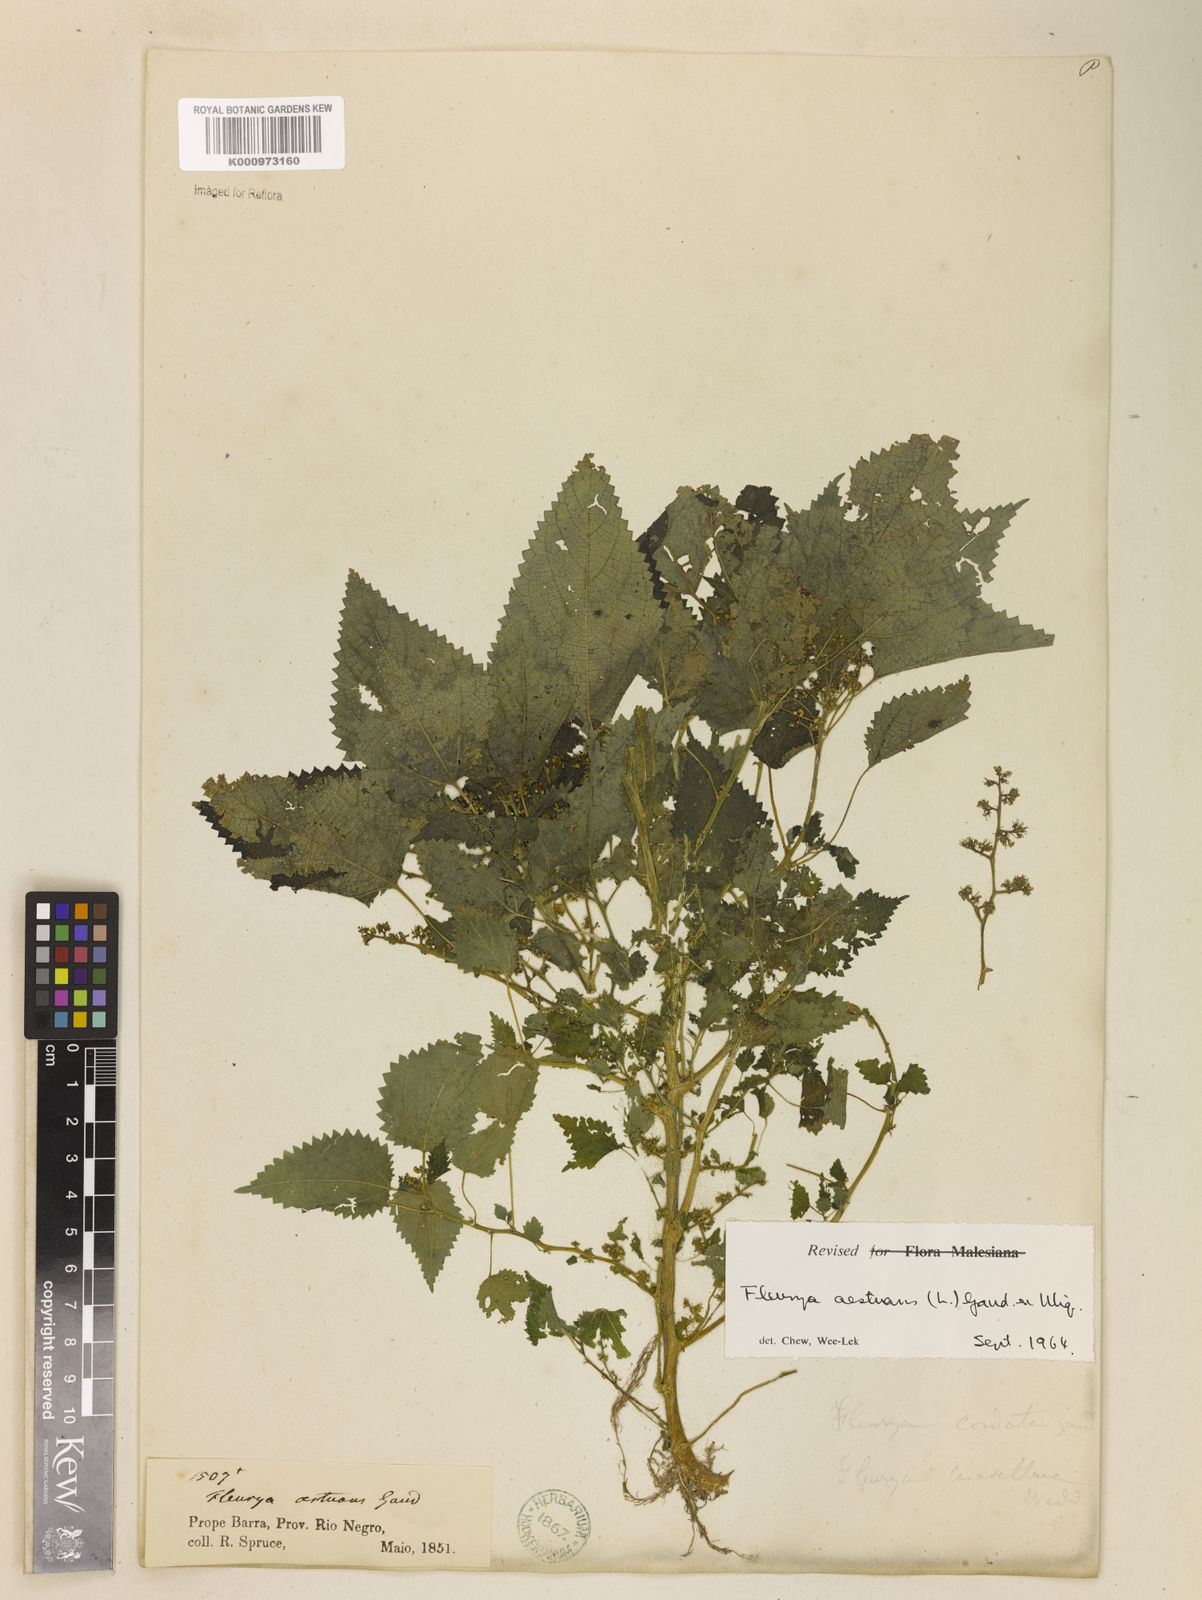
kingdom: Plantae
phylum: Tracheophyta
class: Magnoliopsida
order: Rosales
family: Urticaceae
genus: Laportea
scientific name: Laportea aestuans
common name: West indian woodnettle
